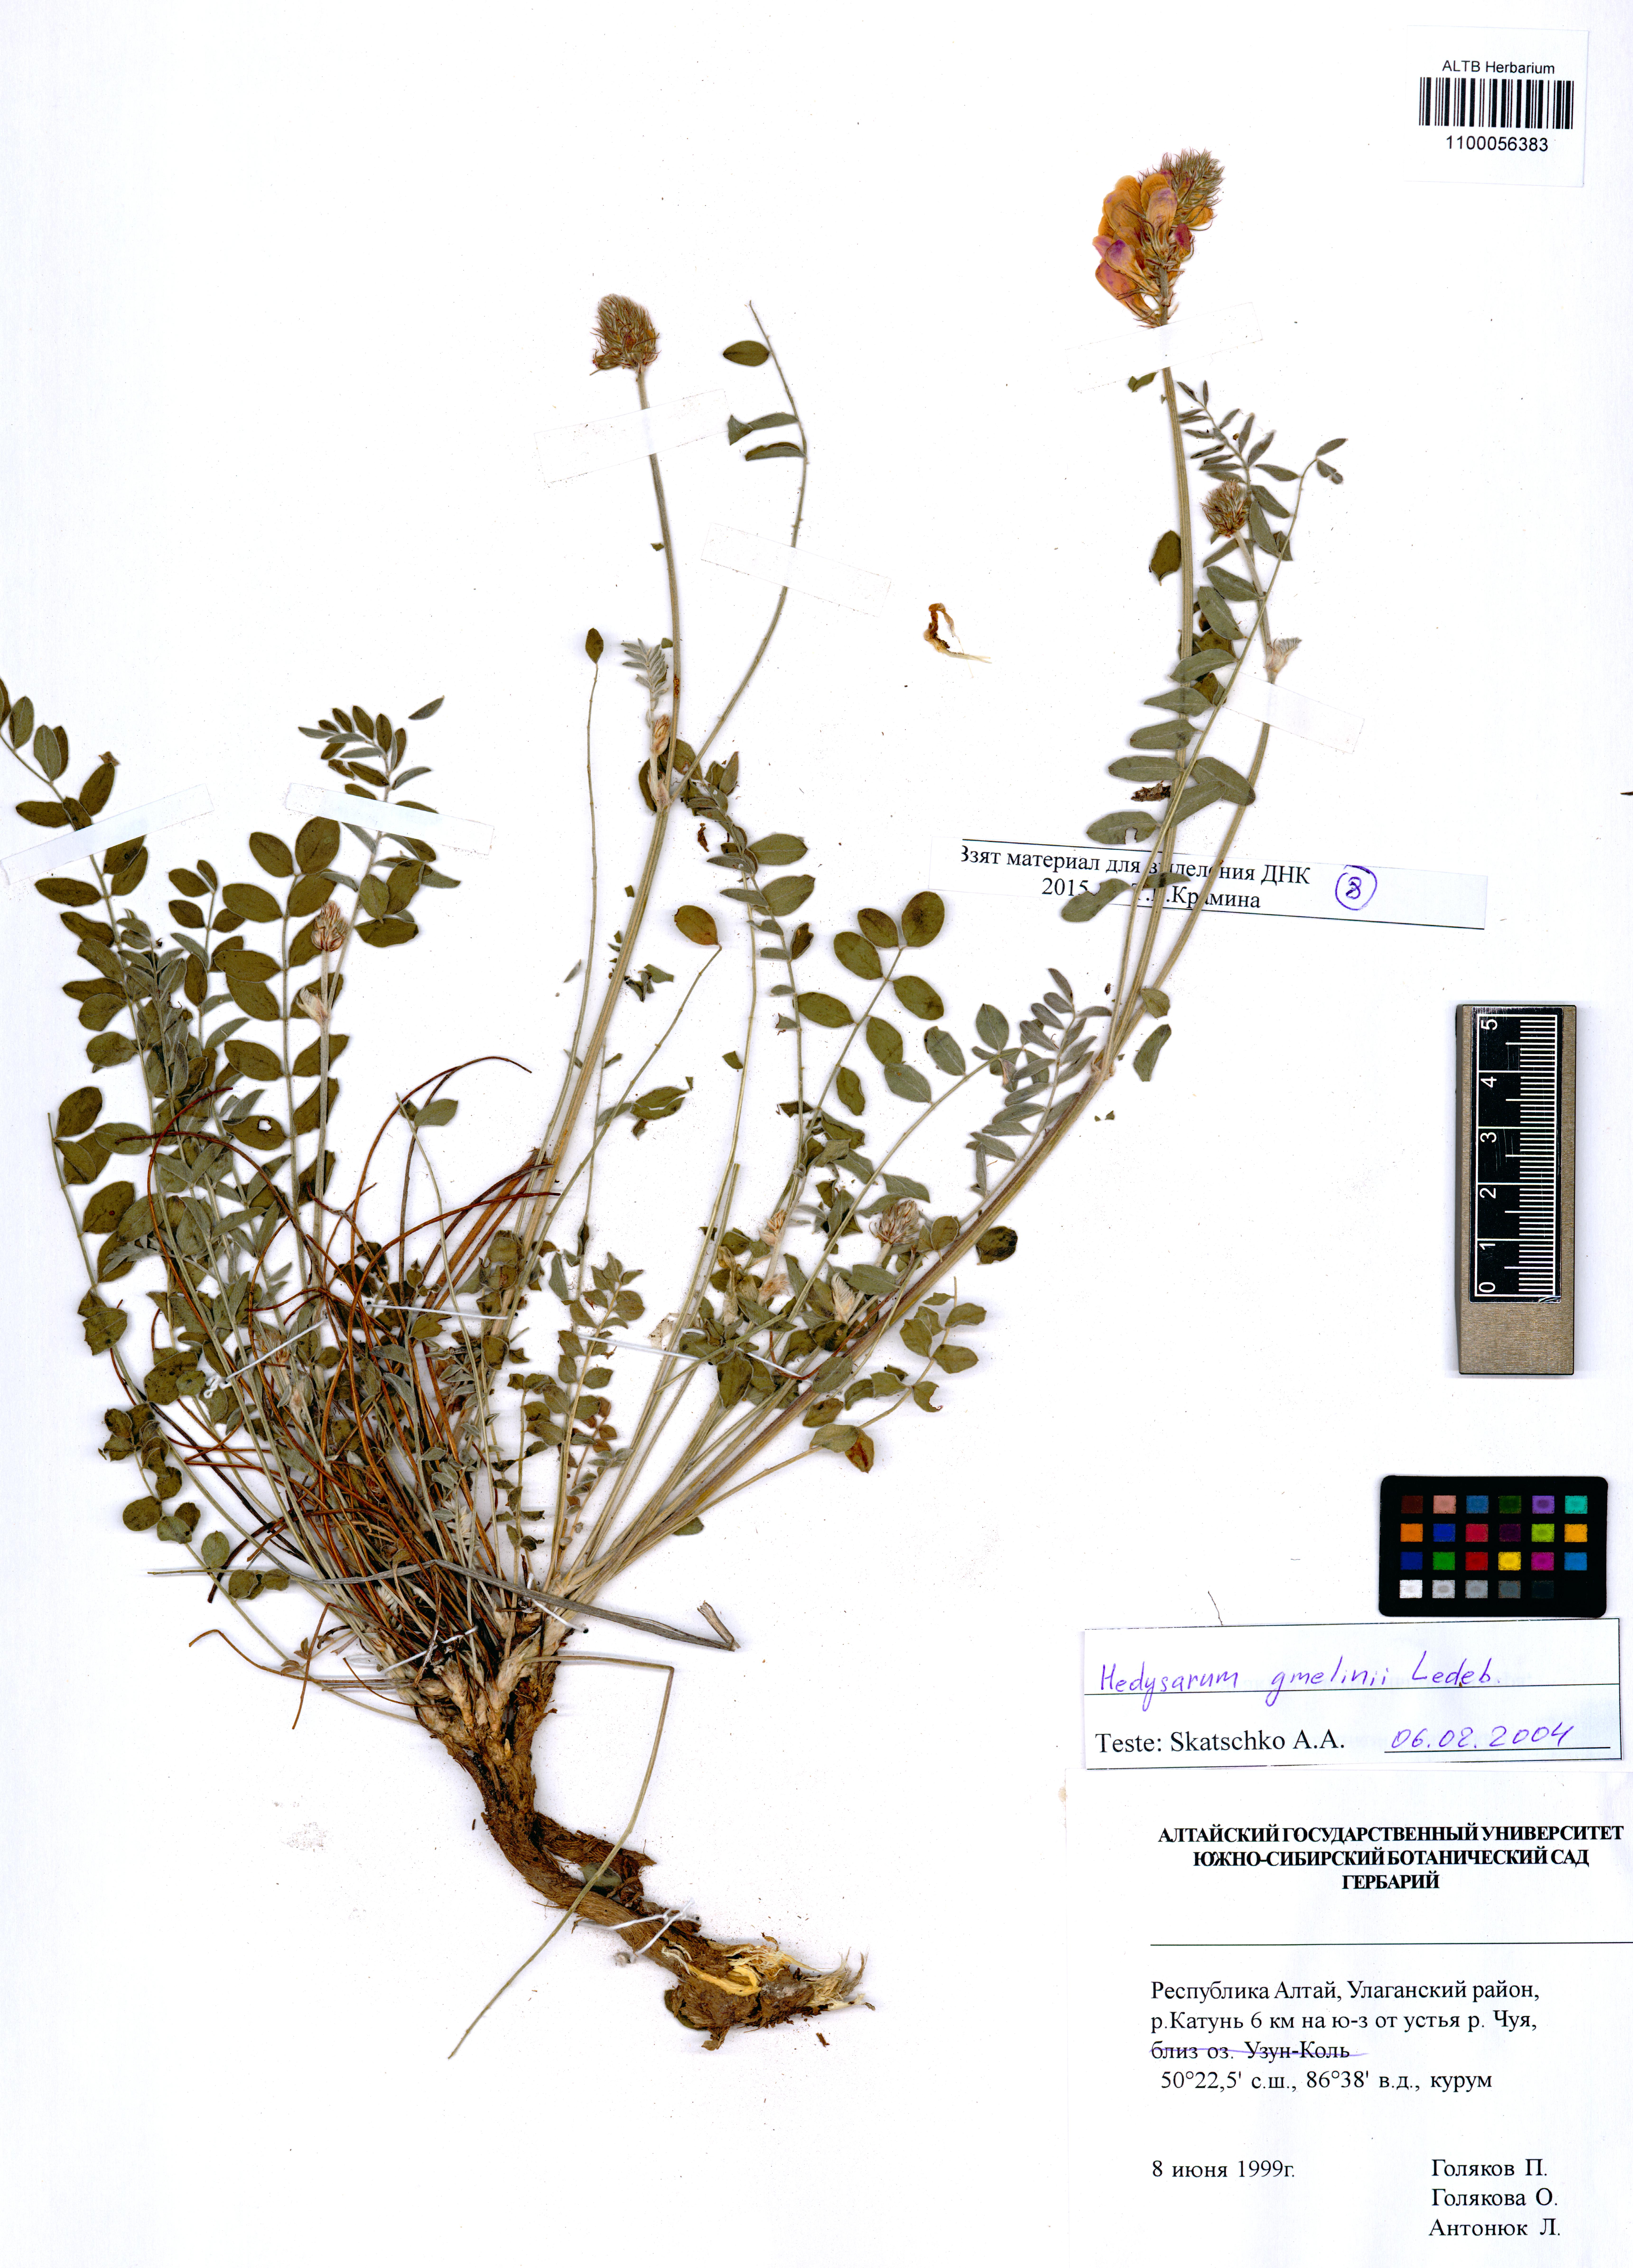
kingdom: Plantae
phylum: Tracheophyta
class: Magnoliopsida
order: Fabales
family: Fabaceae
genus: Hedysarum
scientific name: Hedysarum gmelinii
